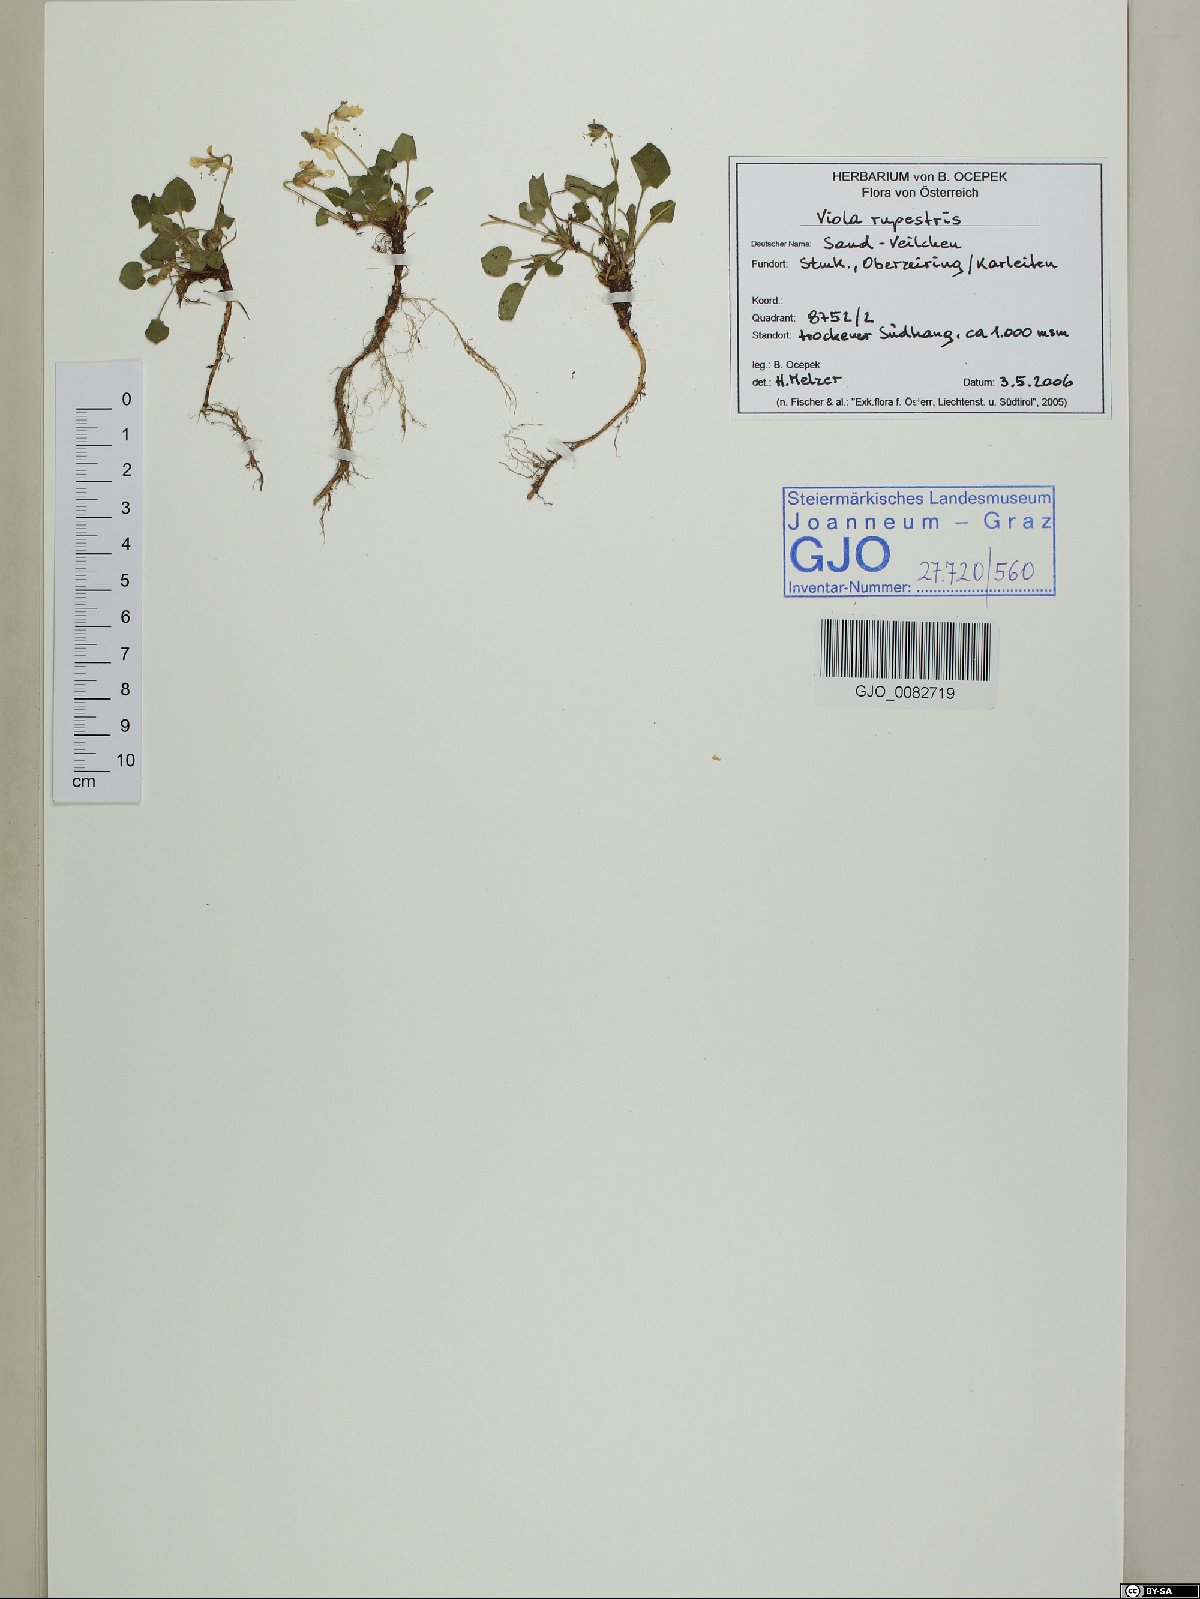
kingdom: Plantae
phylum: Tracheophyta
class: Magnoliopsida
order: Malpighiales
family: Violaceae
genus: Viola
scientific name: Viola rupestris
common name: Teesdale violet
